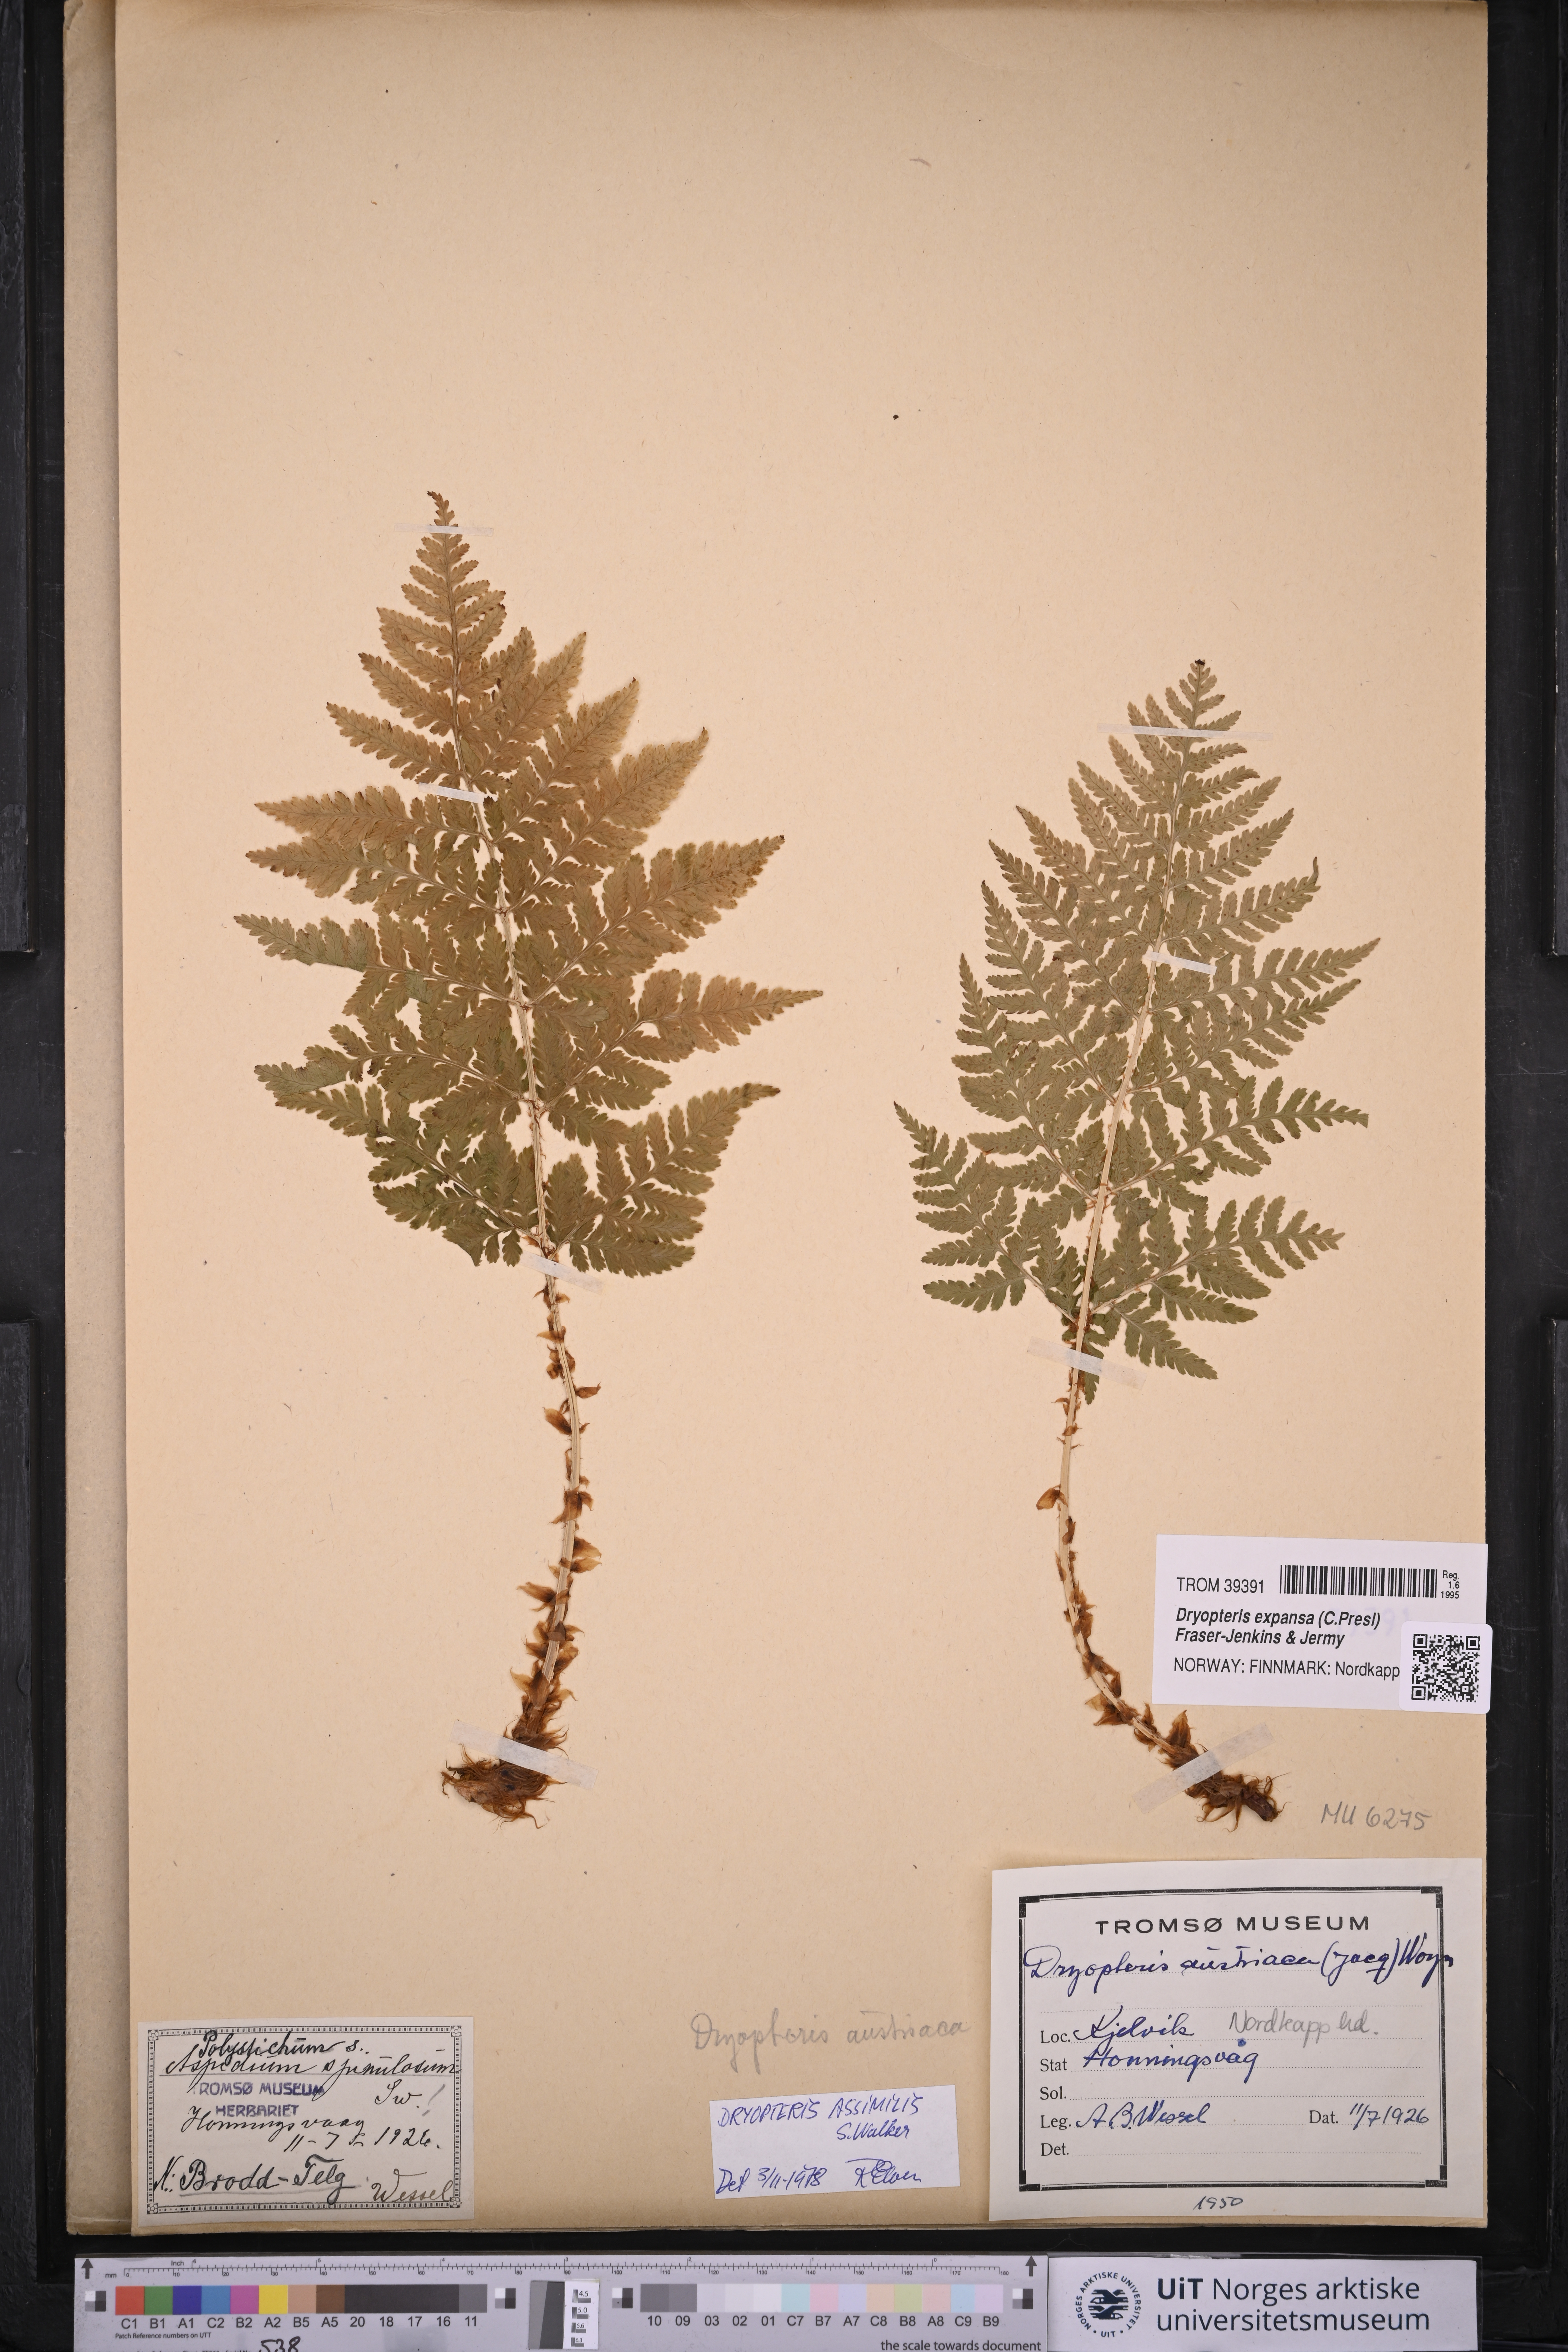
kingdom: Plantae
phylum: Tracheophyta
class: Polypodiopsida
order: Polypodiales
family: Dryopteridaceae
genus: Dryopteris
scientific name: Dryopteris expansa
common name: Northern buckler fern
